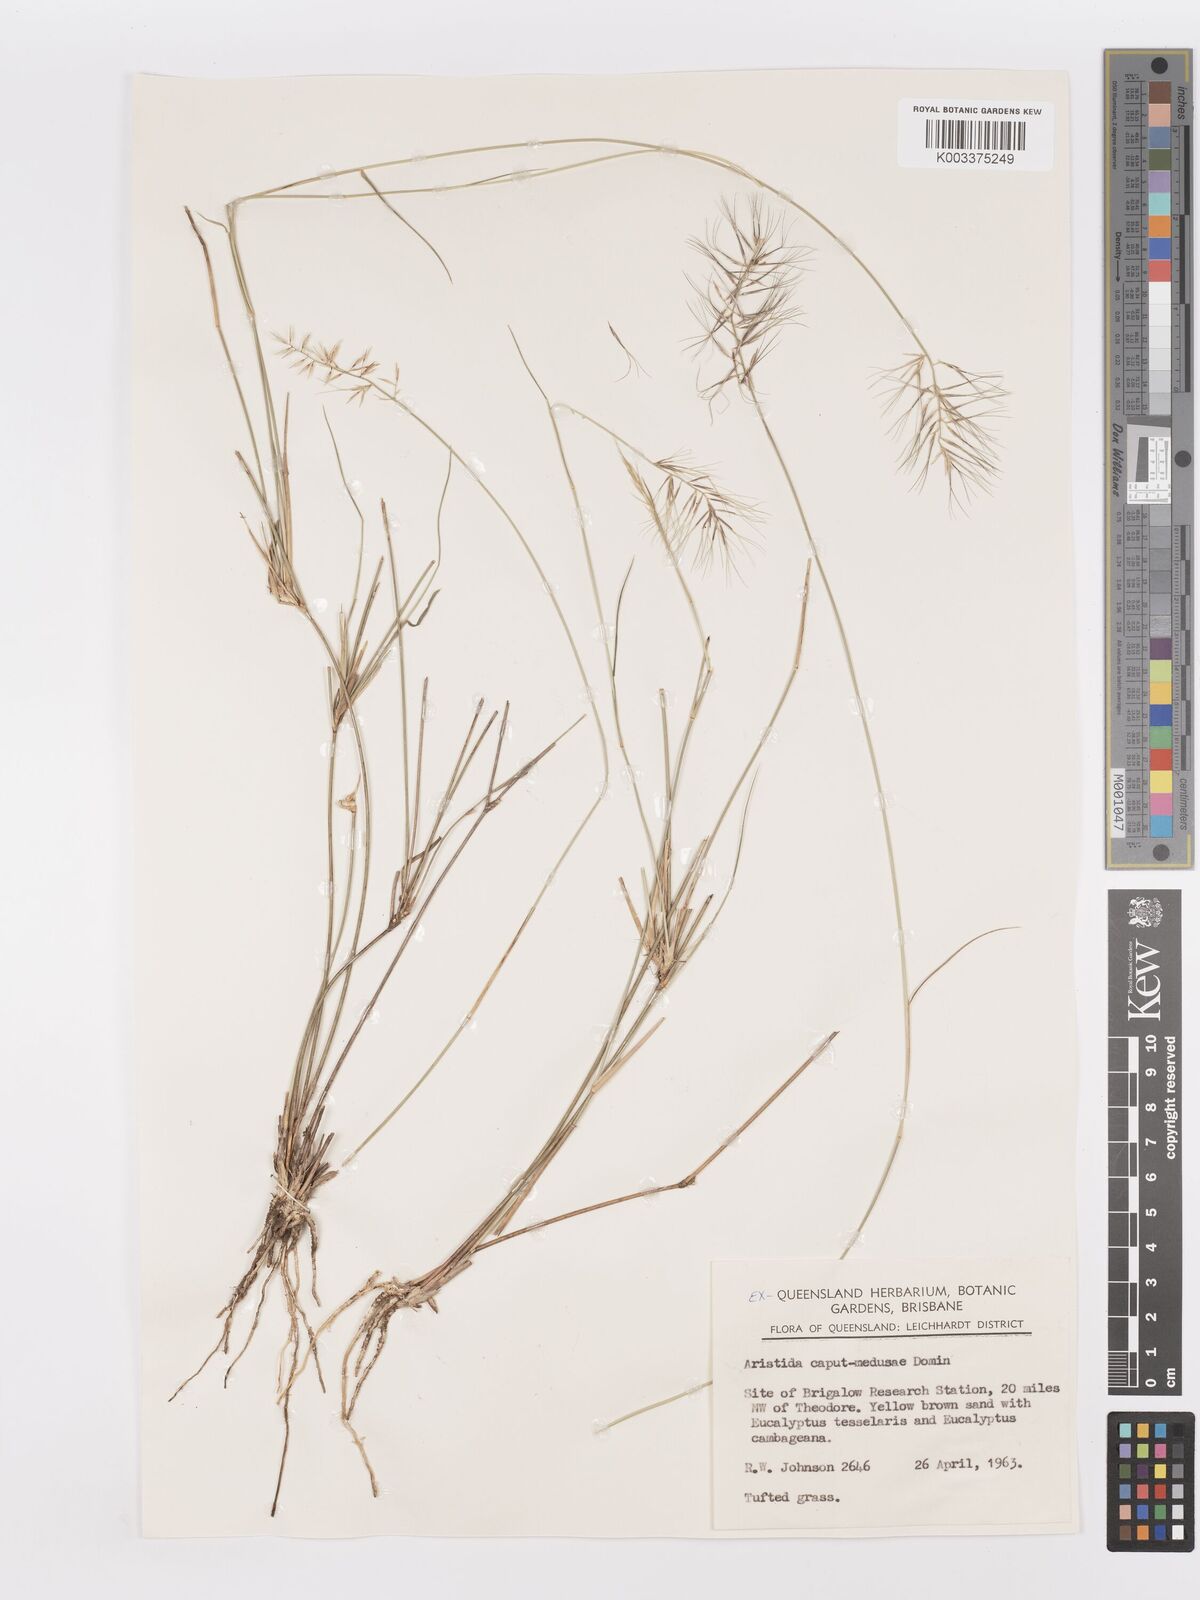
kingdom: Plantae
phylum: Tracheophyta
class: Liliopsida
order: Poales
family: Poaceae
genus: Aristida
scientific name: Aristida caput-medusae
